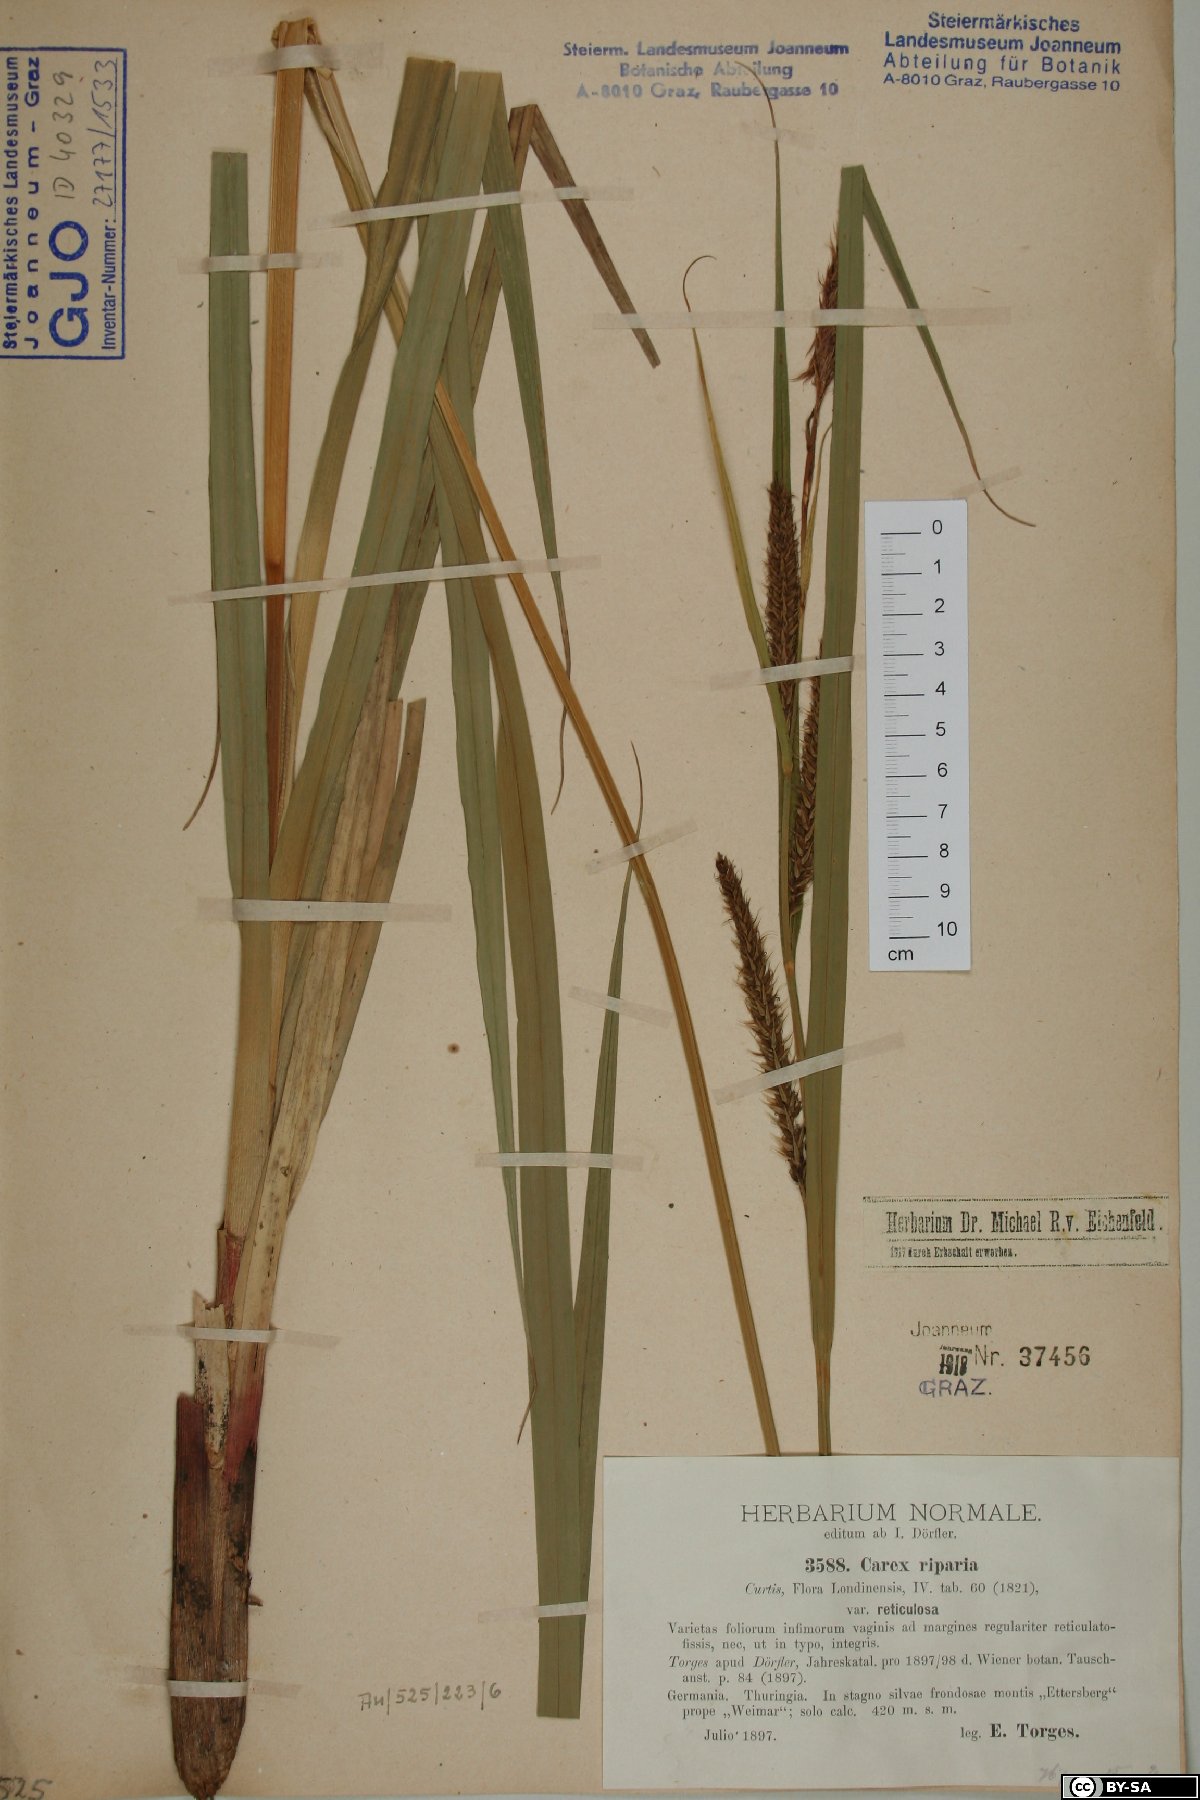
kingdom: Plantae
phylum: Tracheophyta
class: Liliopsida
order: Poales
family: Cyperaceae
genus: Carex
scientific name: Carex riparia
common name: Greater pond-sedge
